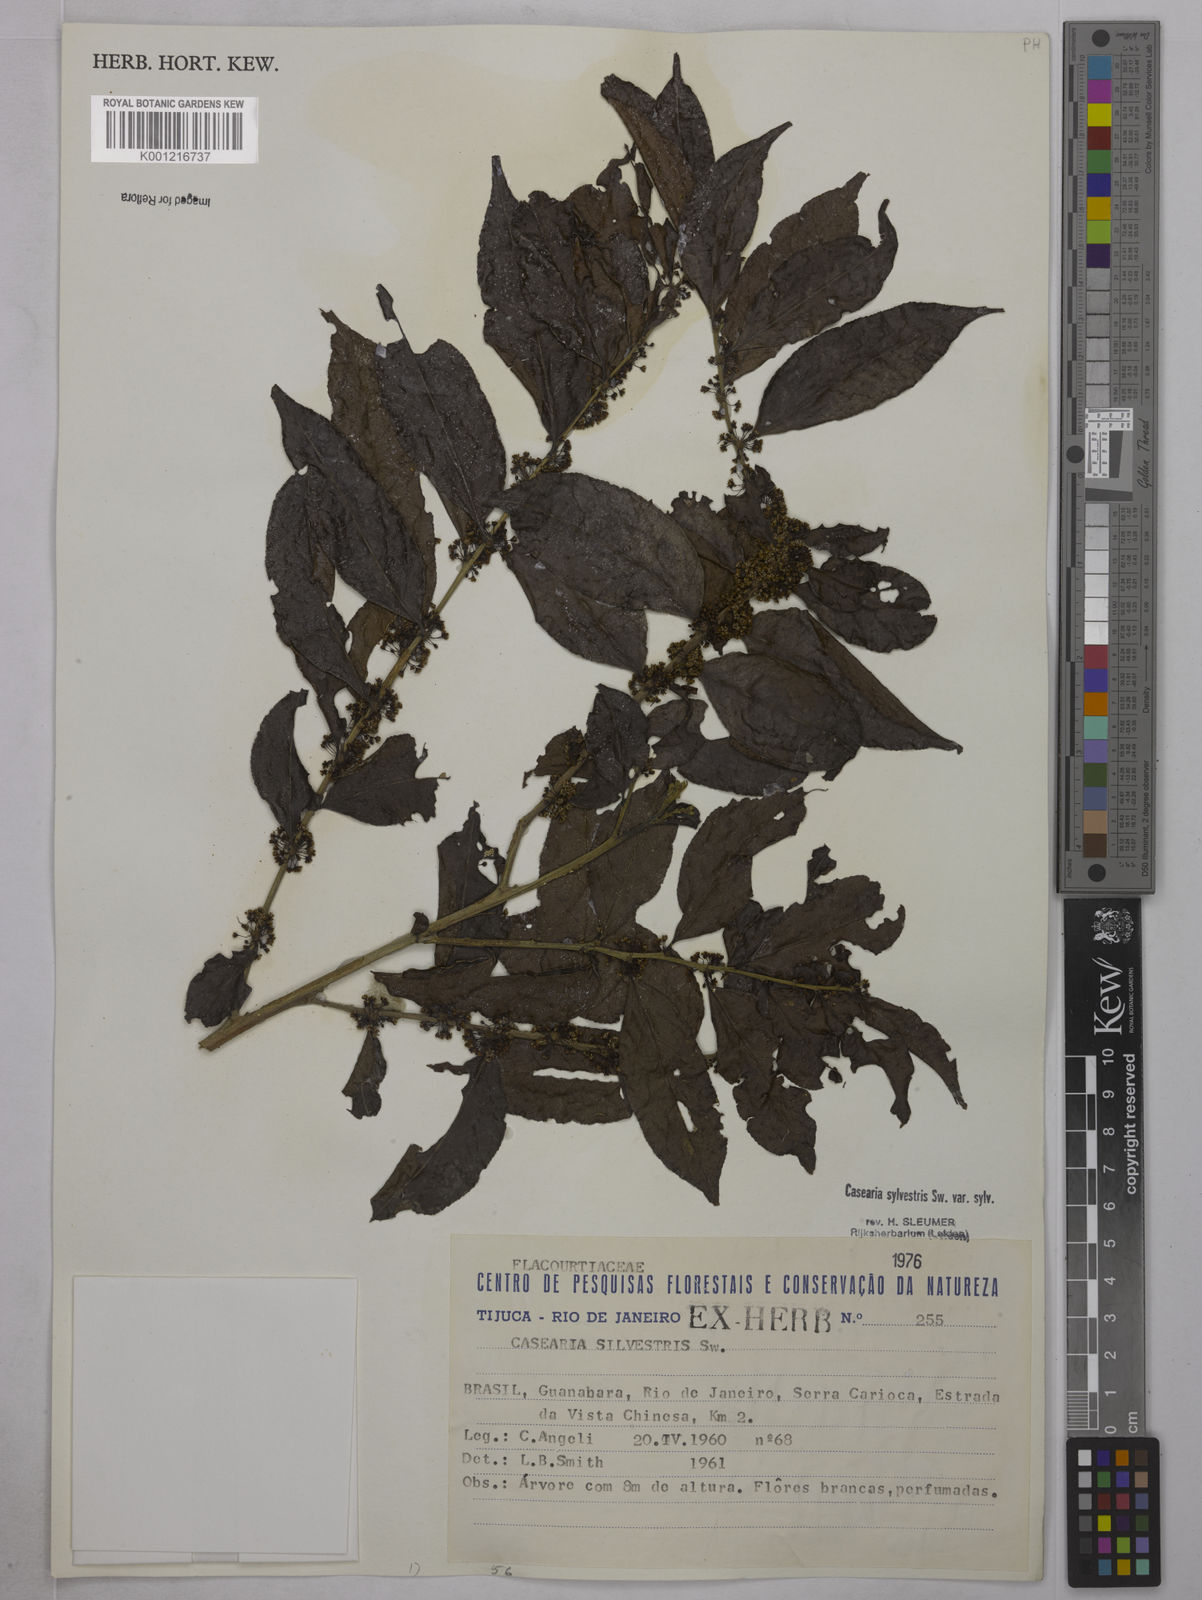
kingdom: Plantae
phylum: Tracheophyta
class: Magnoliopsida
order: Malpighiales
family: Salicaceae
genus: Casearia
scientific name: Casearia sylvestris
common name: Wild sage
